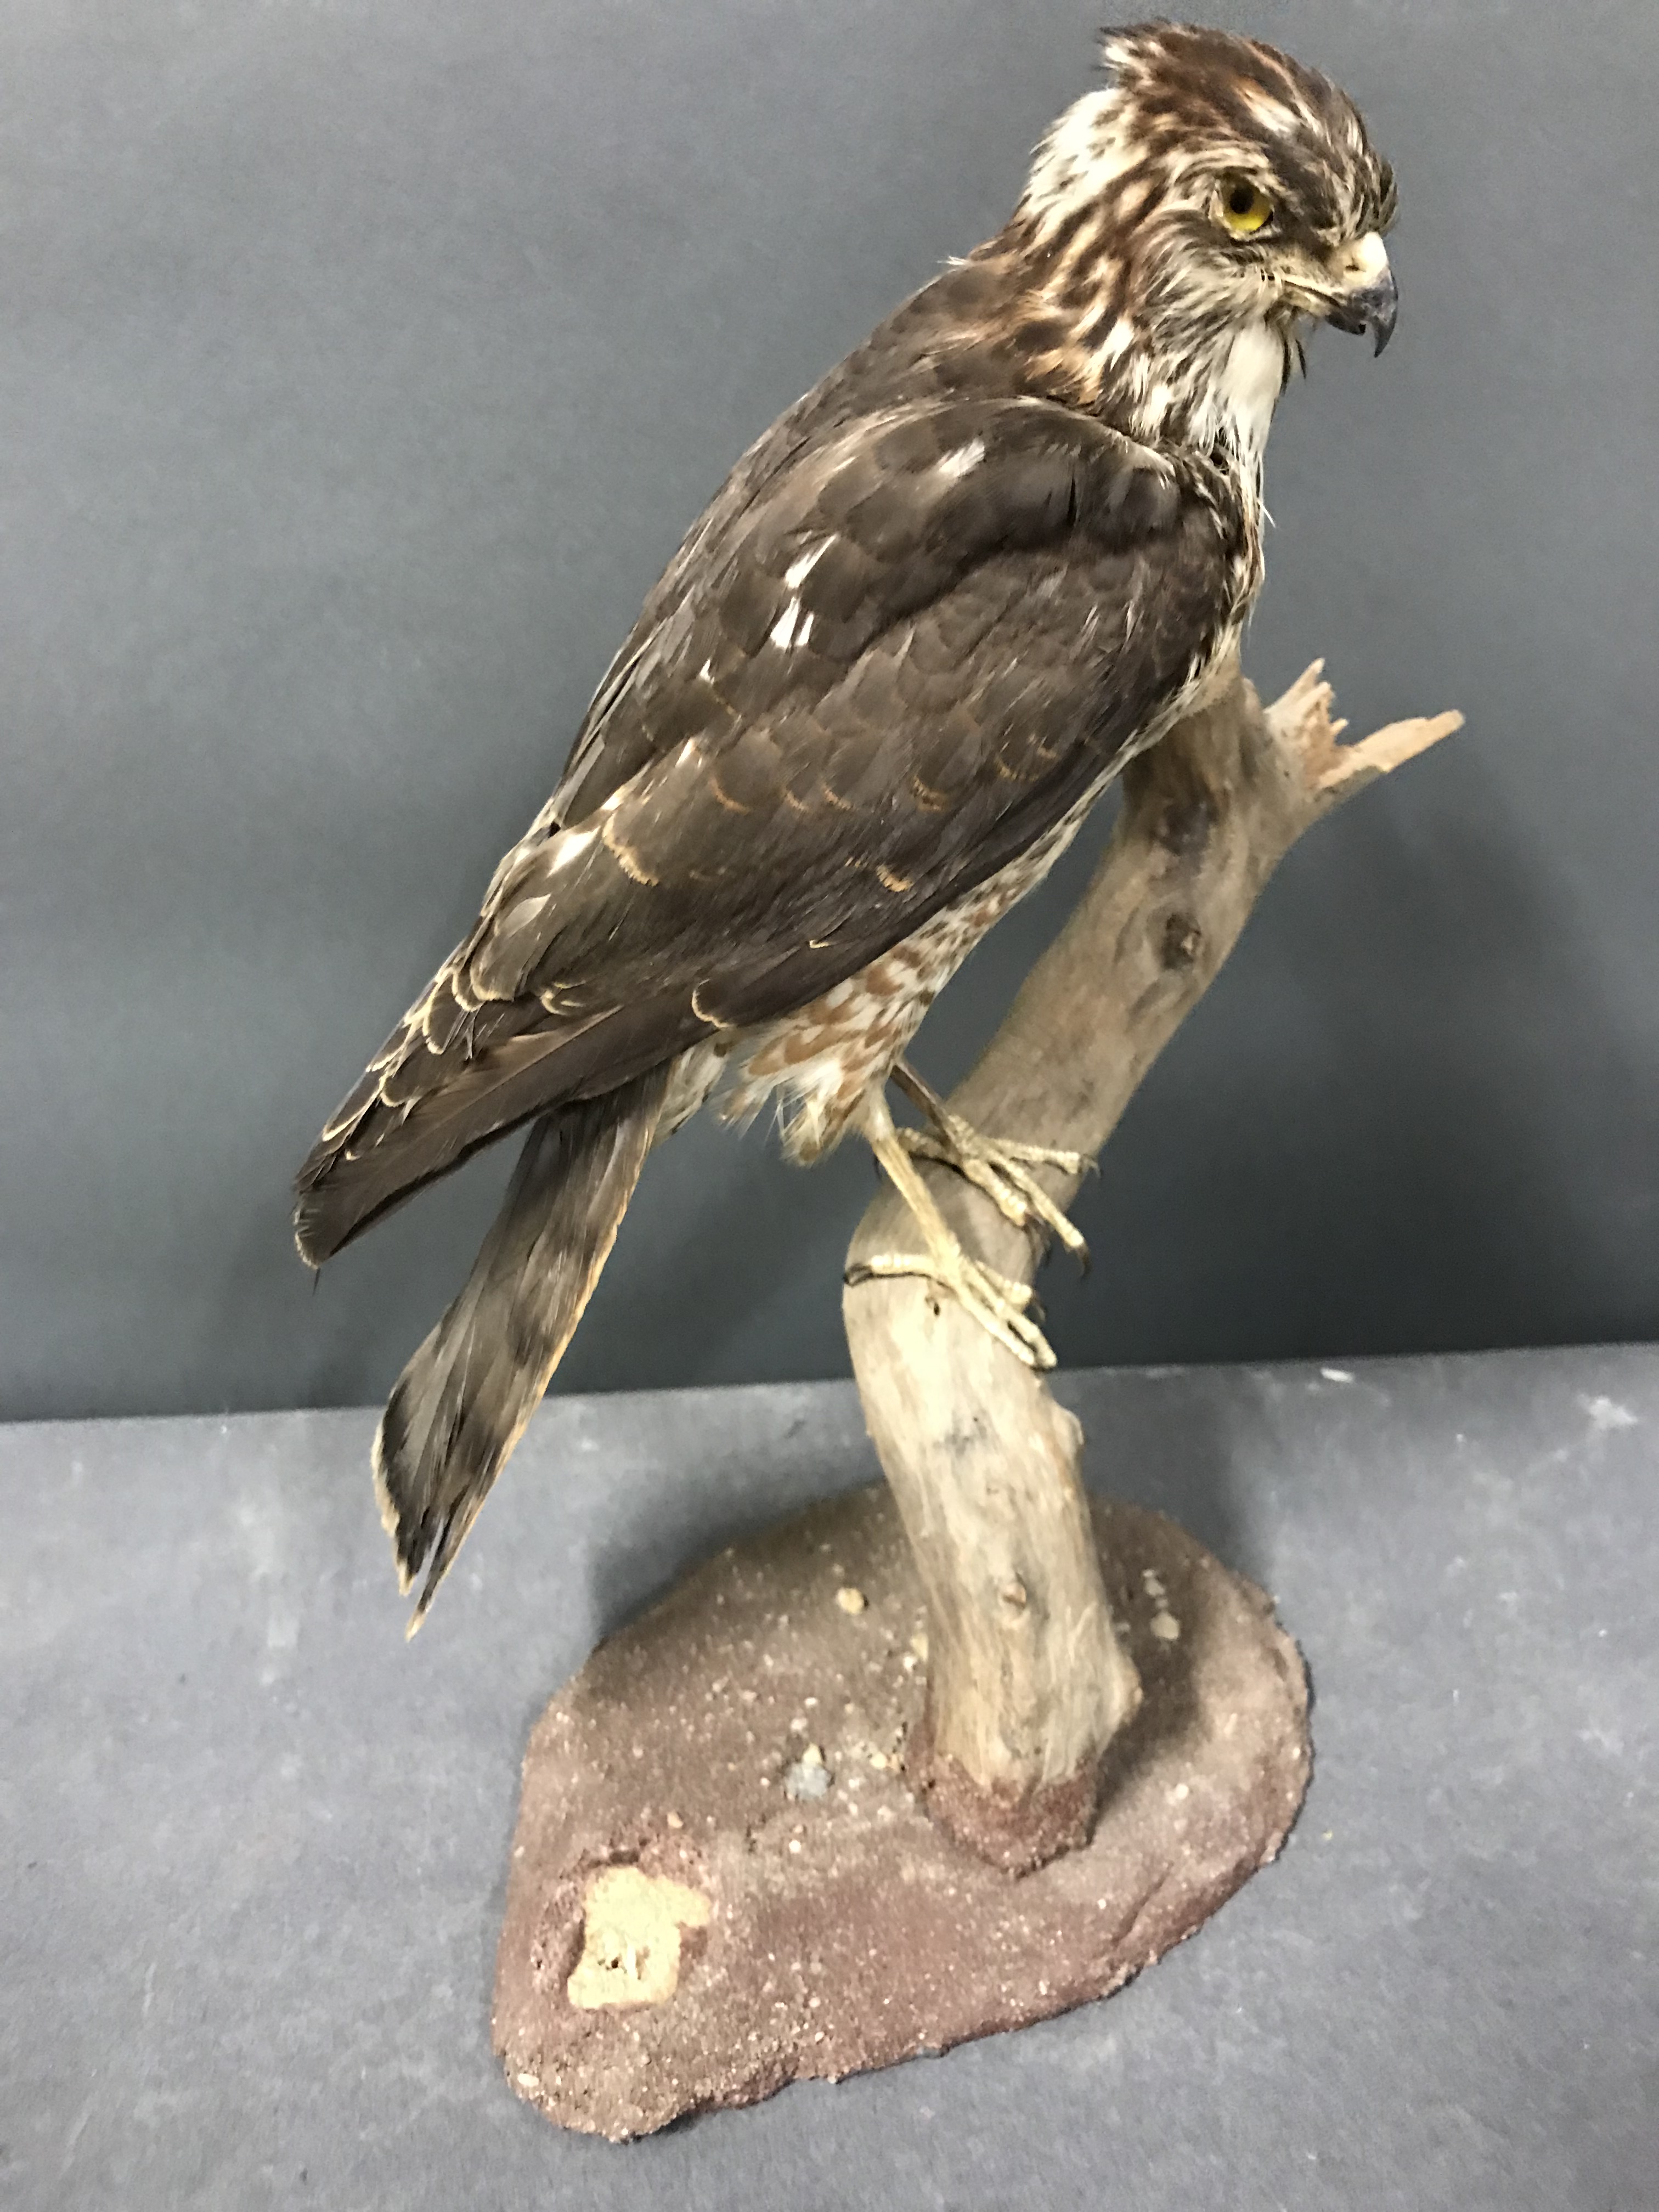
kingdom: Animalia
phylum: Chordata
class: Aves
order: Accipitriformes
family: Accipitridae
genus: Accipiter
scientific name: Accipiter nisus
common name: Eurasian sparrowhawk
